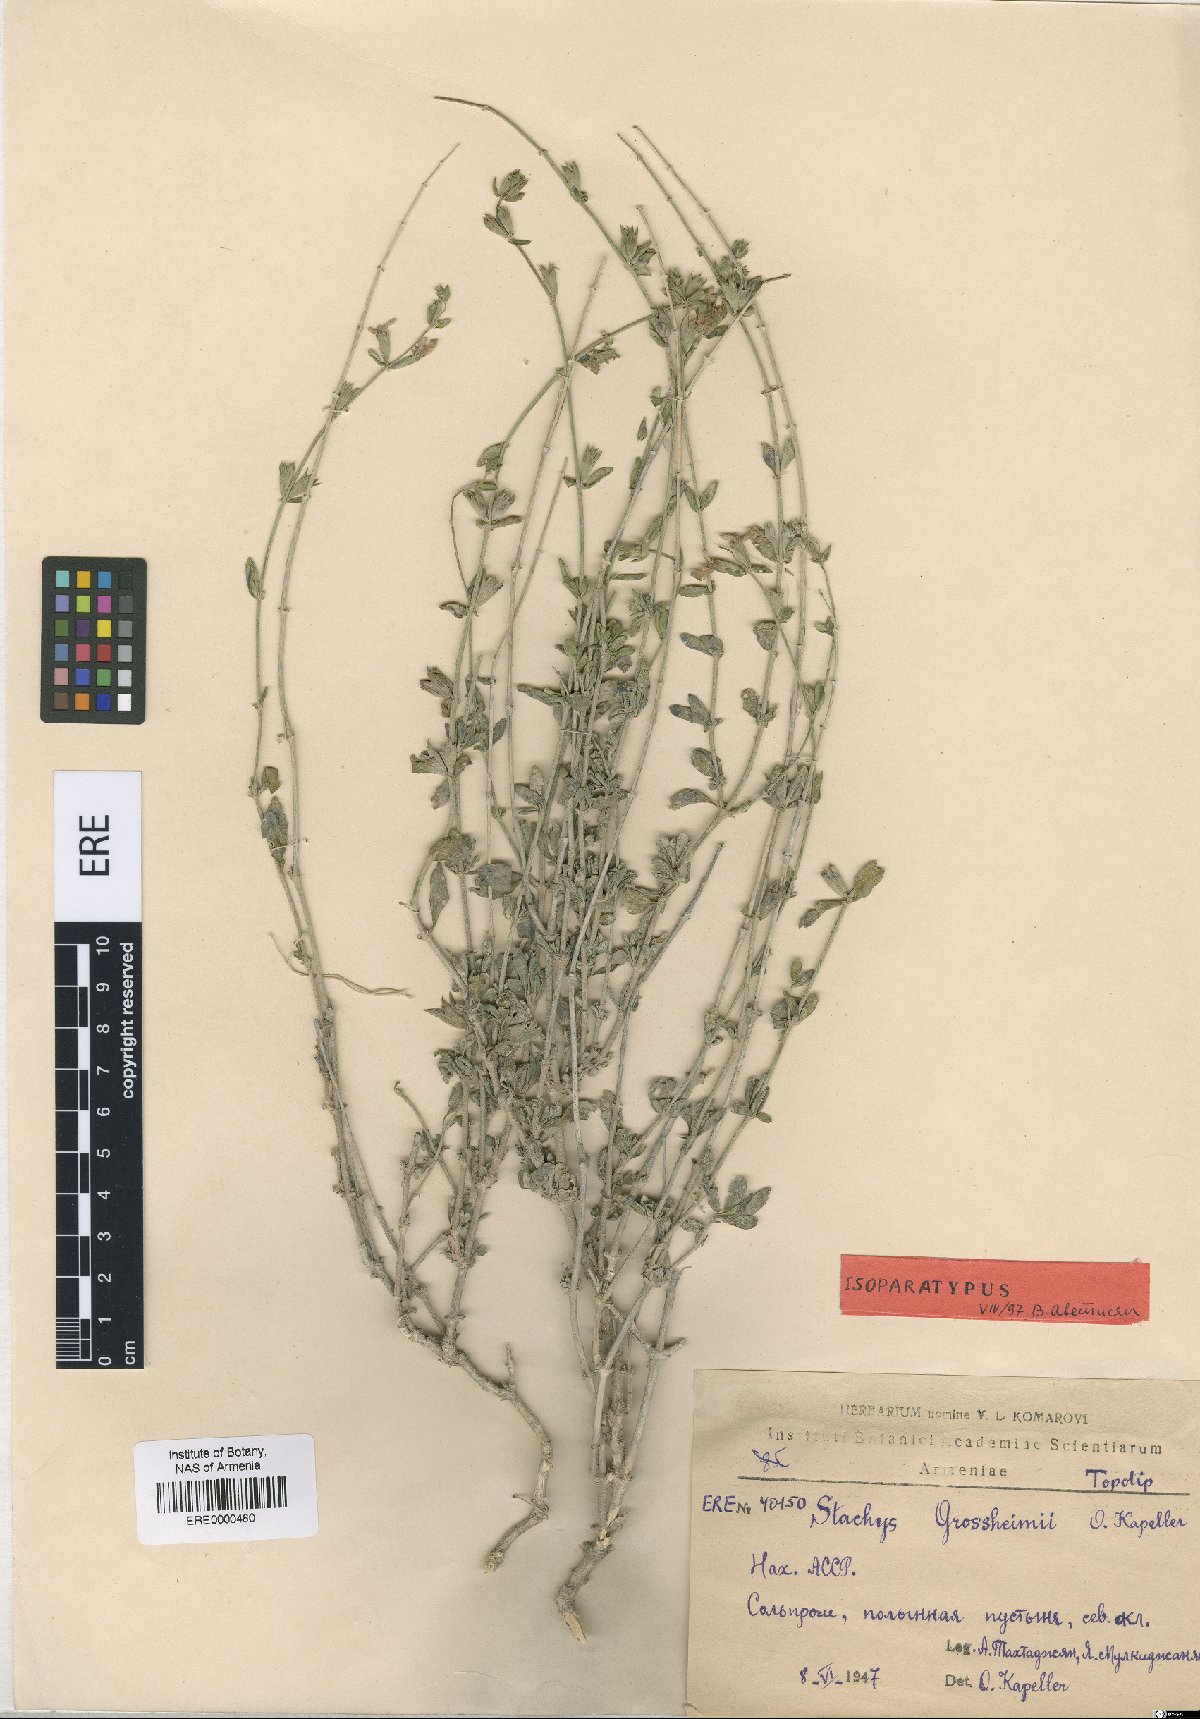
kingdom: Plantae
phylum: Tracheophyta
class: Magnoliopsida
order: Lamiales
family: Lamiaceae
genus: Stachys
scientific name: Stachys fruticulosa
